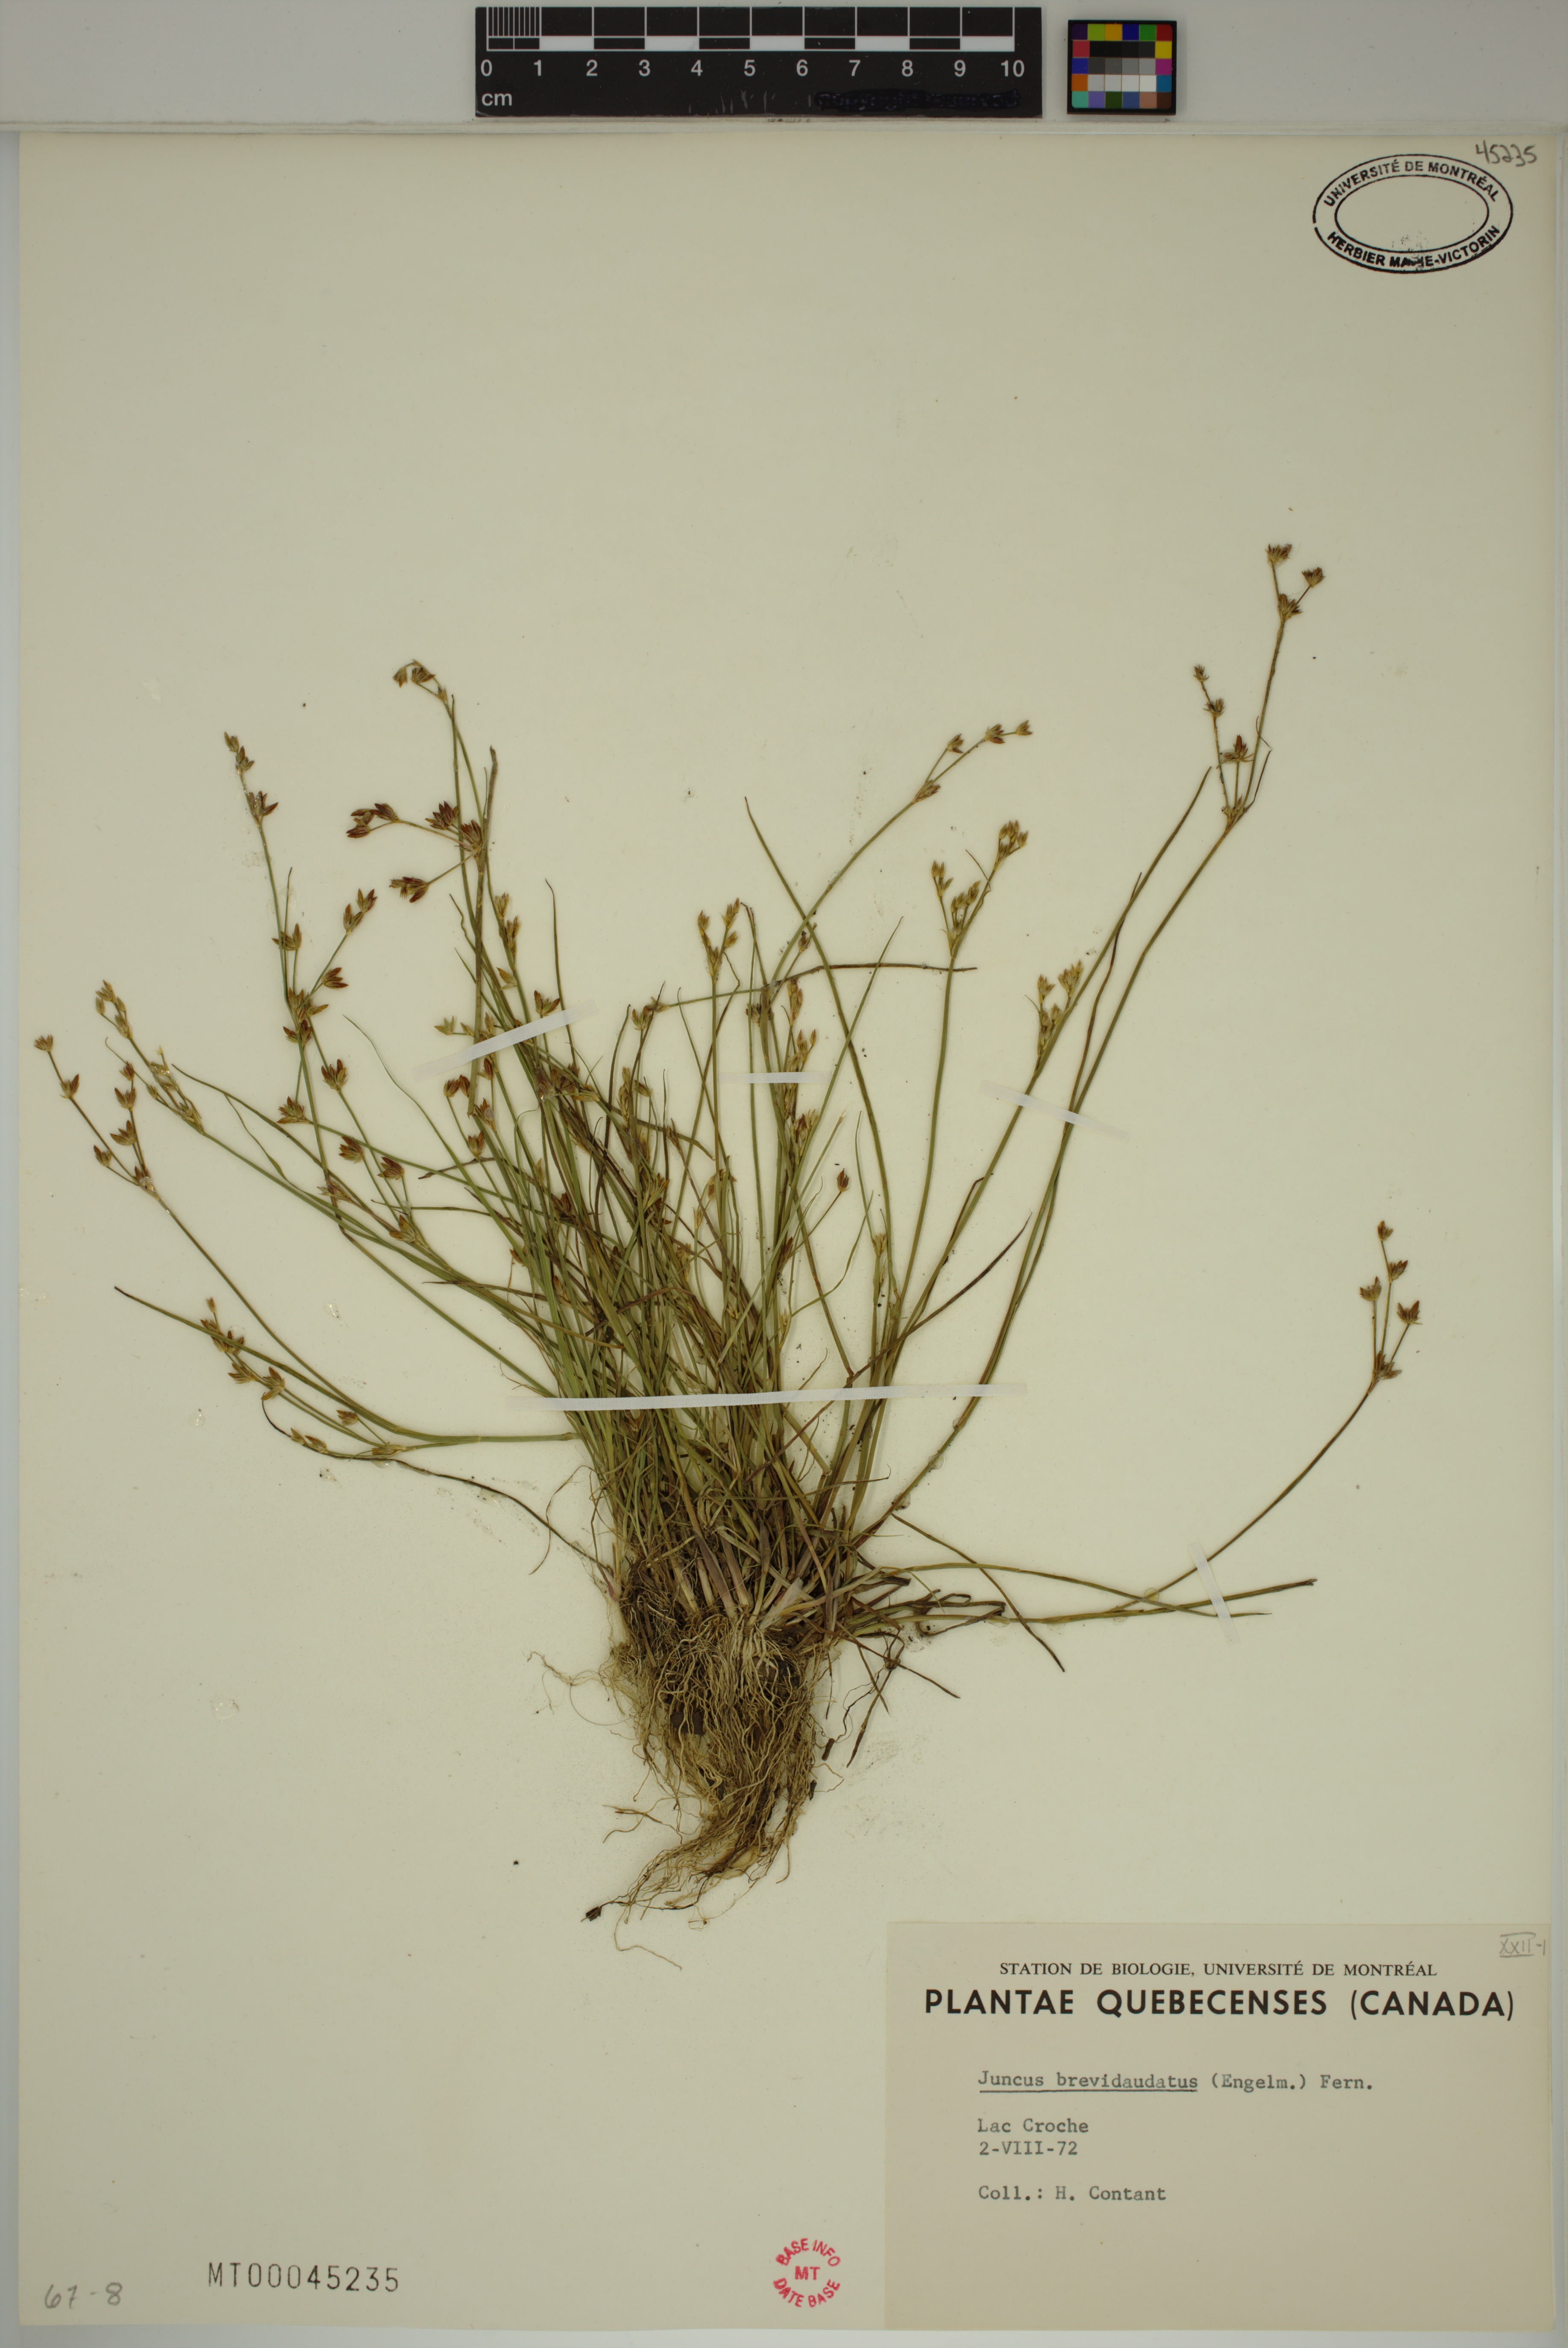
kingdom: Plantae
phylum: Tracheophyta
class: Liliopsida
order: Poales
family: Juncaceae
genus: Juncus
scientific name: Juncus brevicaudatus
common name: Narrow-panicle rush
